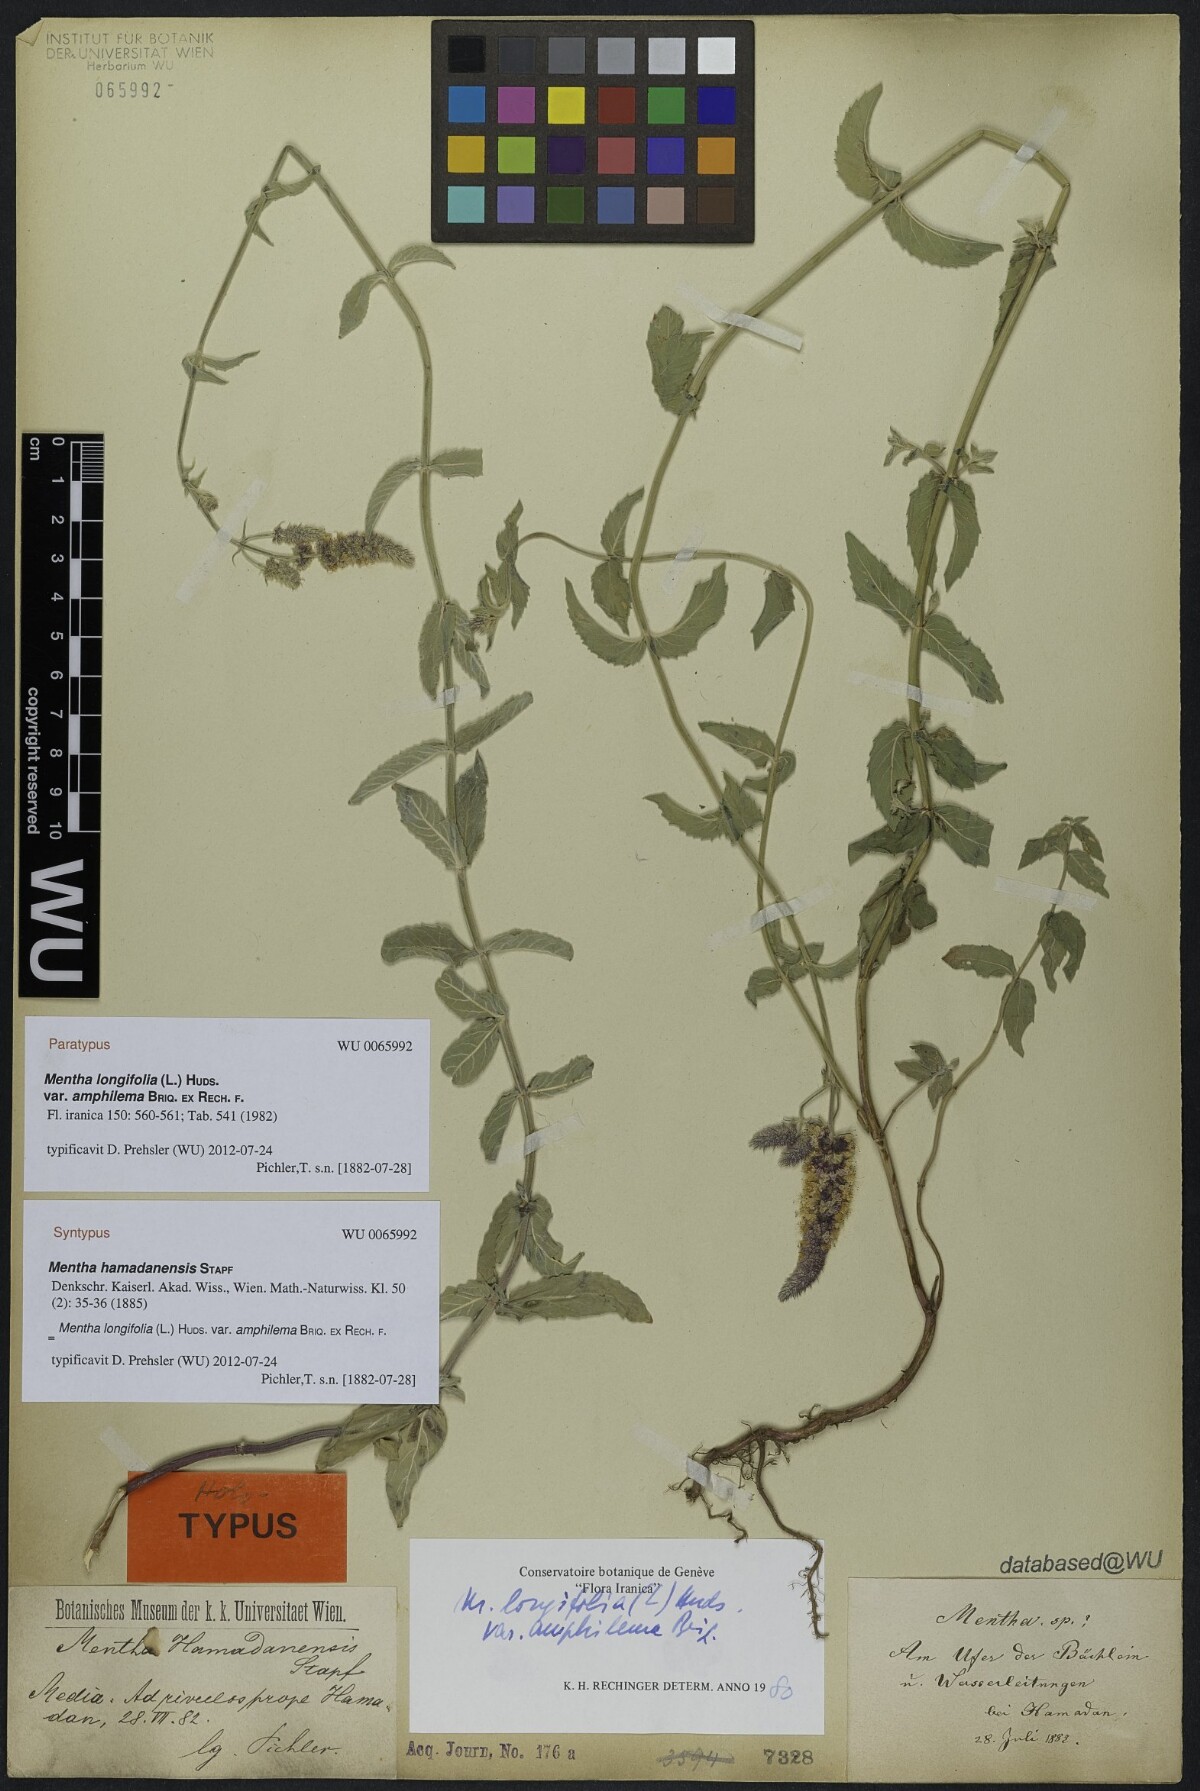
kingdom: Plantae
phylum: Tracheophyta
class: Magnoliopsida
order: Lamiales
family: Lamiaceae
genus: Mentha
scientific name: Mentha longifolia
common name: Horse mint
